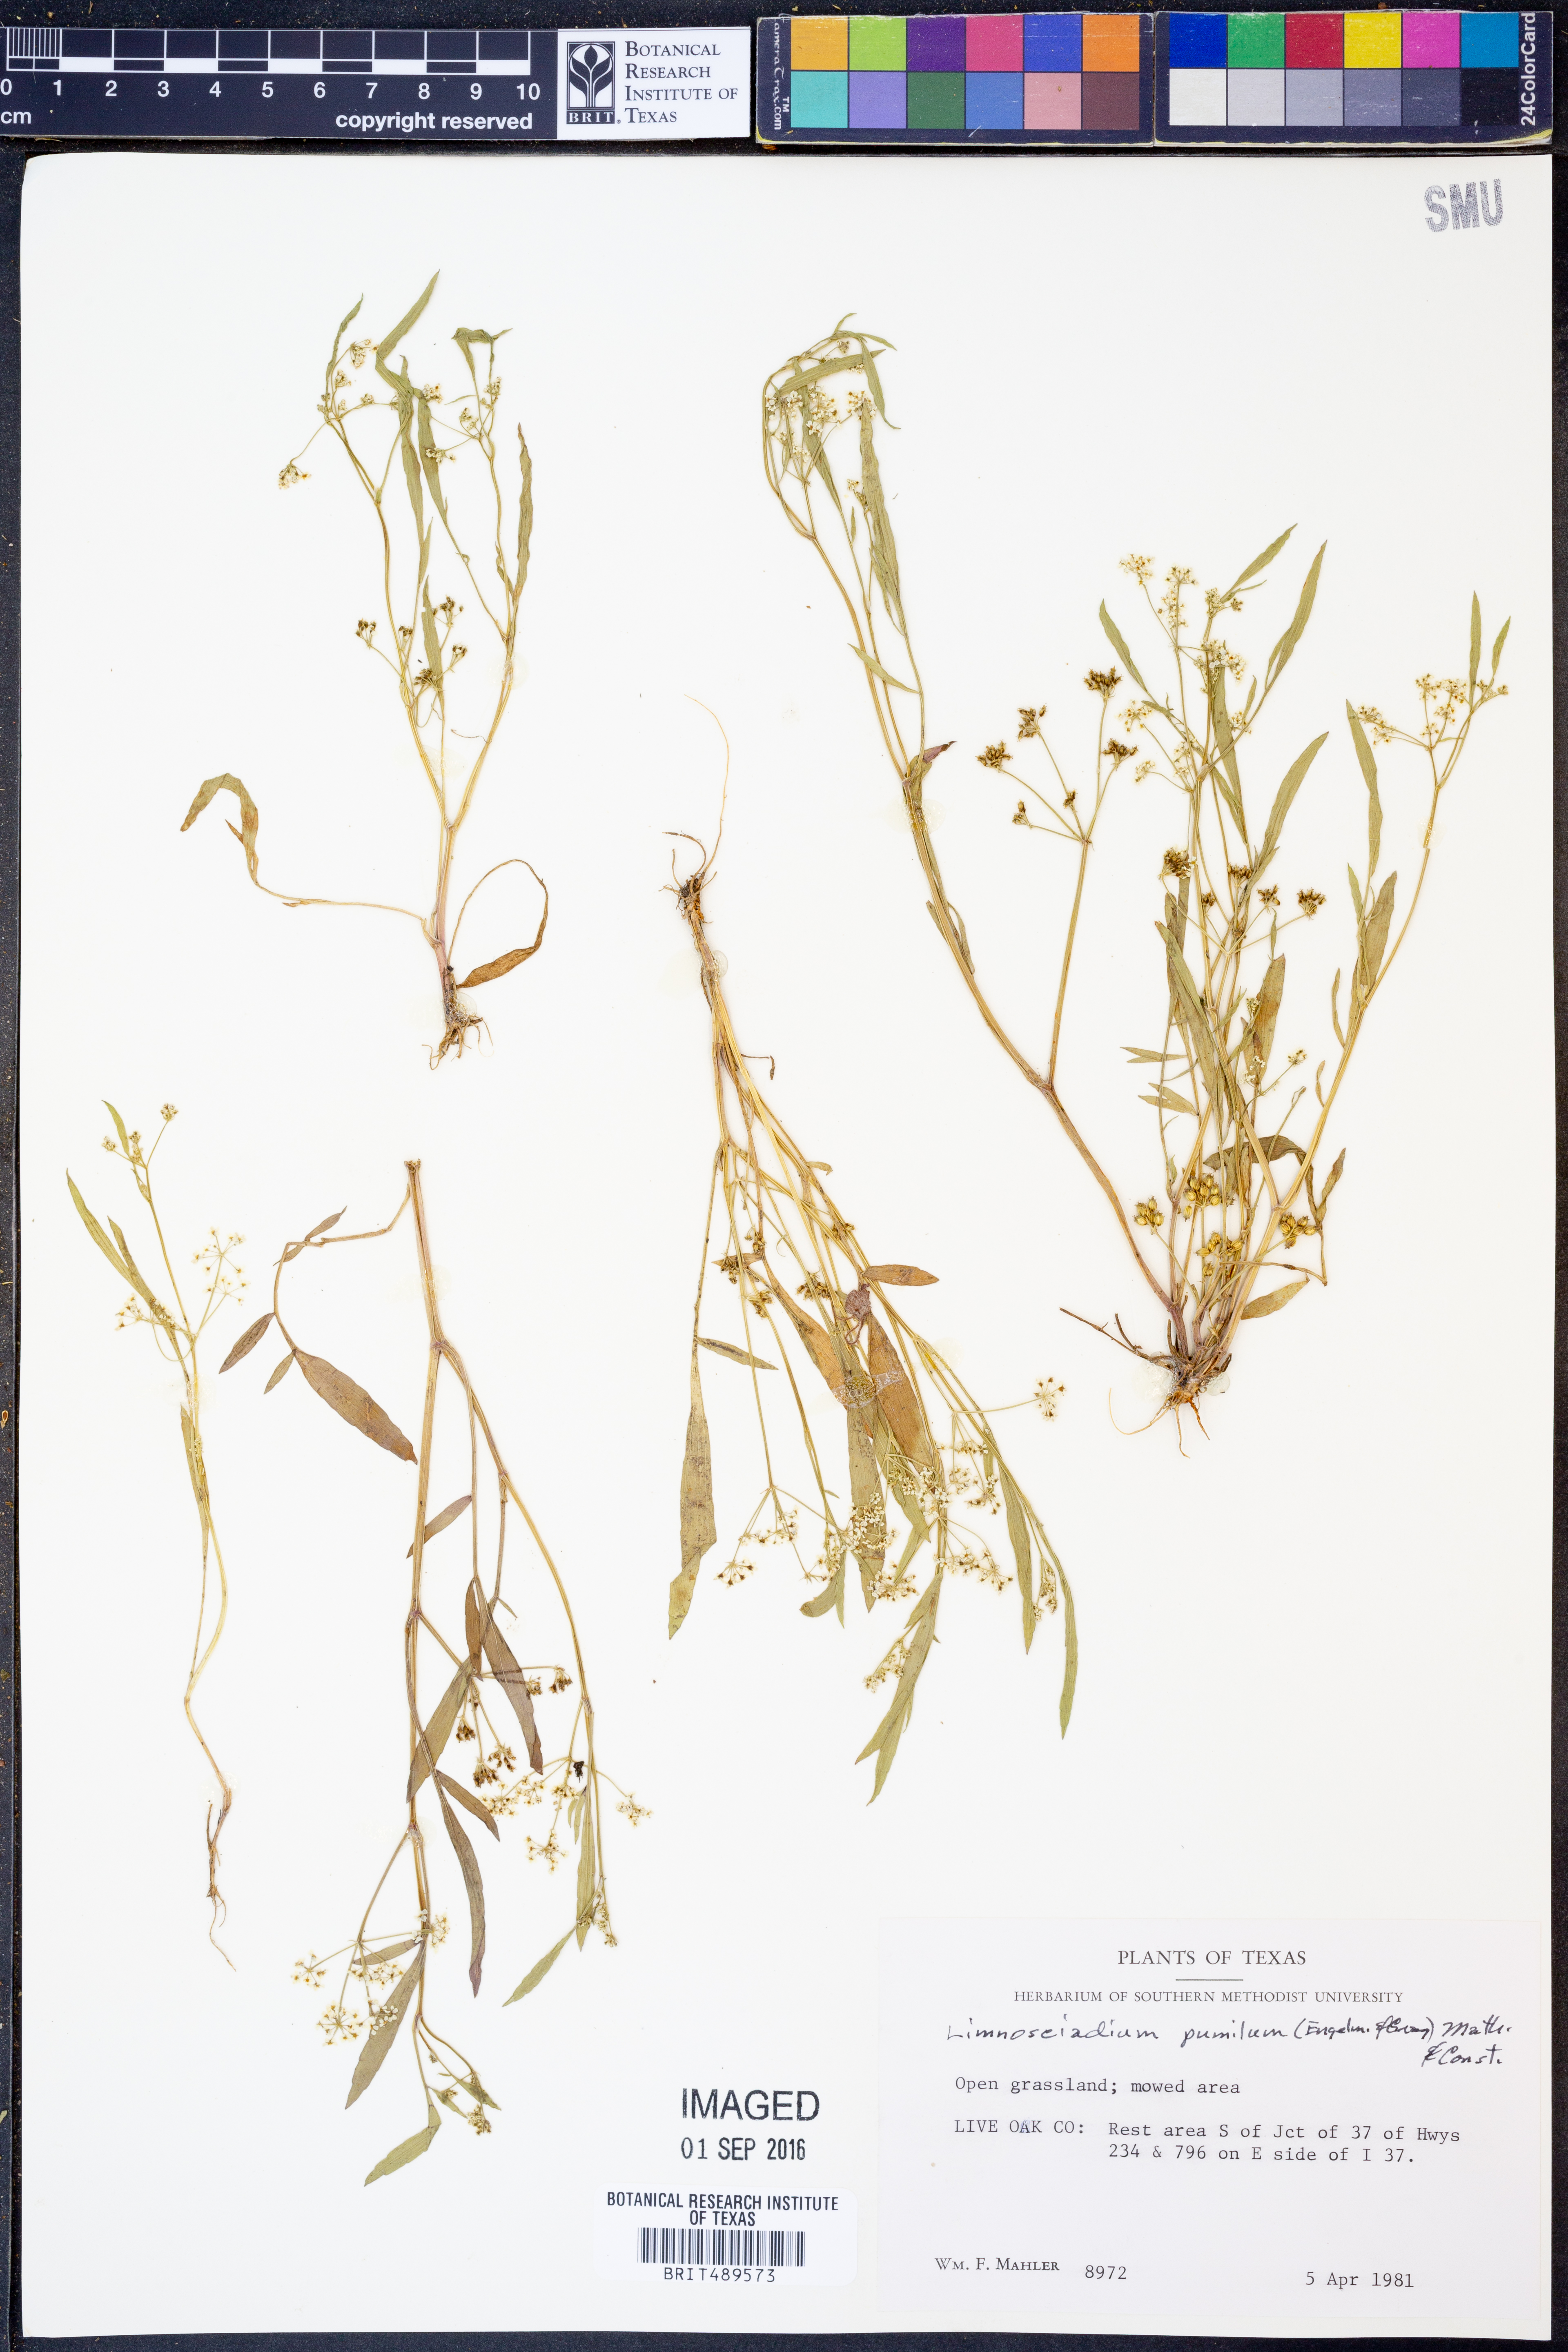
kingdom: Plantae
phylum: Tracheophyta
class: Magnoliopsida
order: Apiales
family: Apiaceae
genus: Limnosciadium
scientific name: Limnosciadium pinnatum
